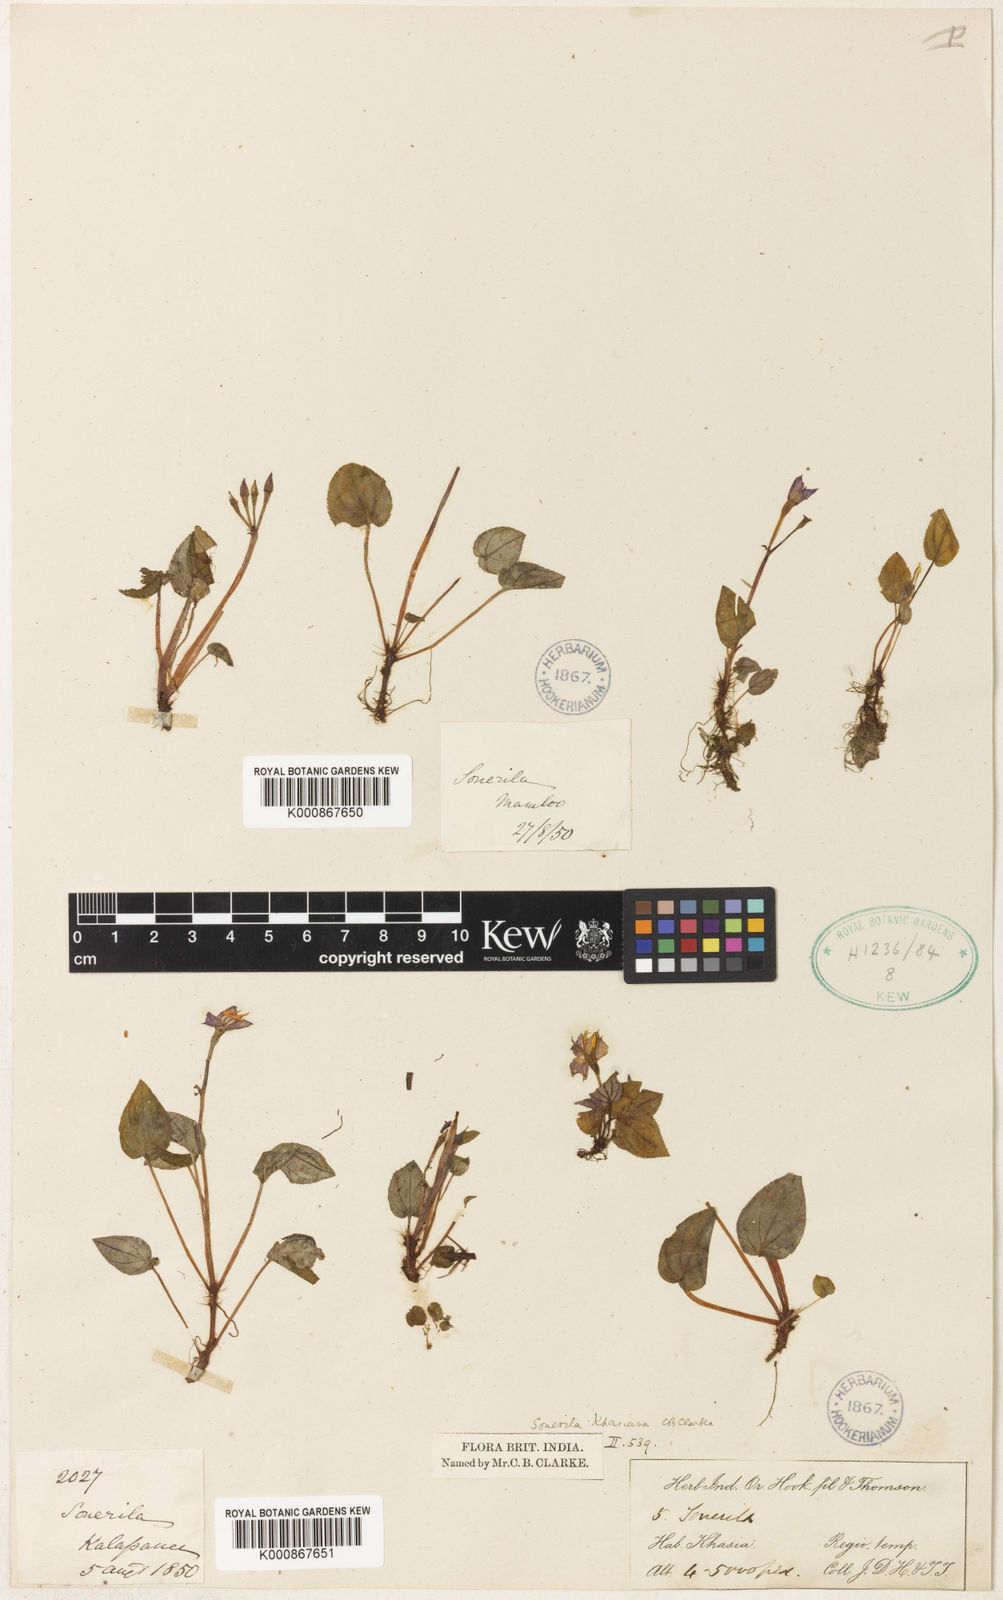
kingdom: Plantae
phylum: Tracheophyta
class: Magnoliopsida
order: Myrtales
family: Melastomataceae
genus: Sonerila
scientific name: Sonerila khasiana
